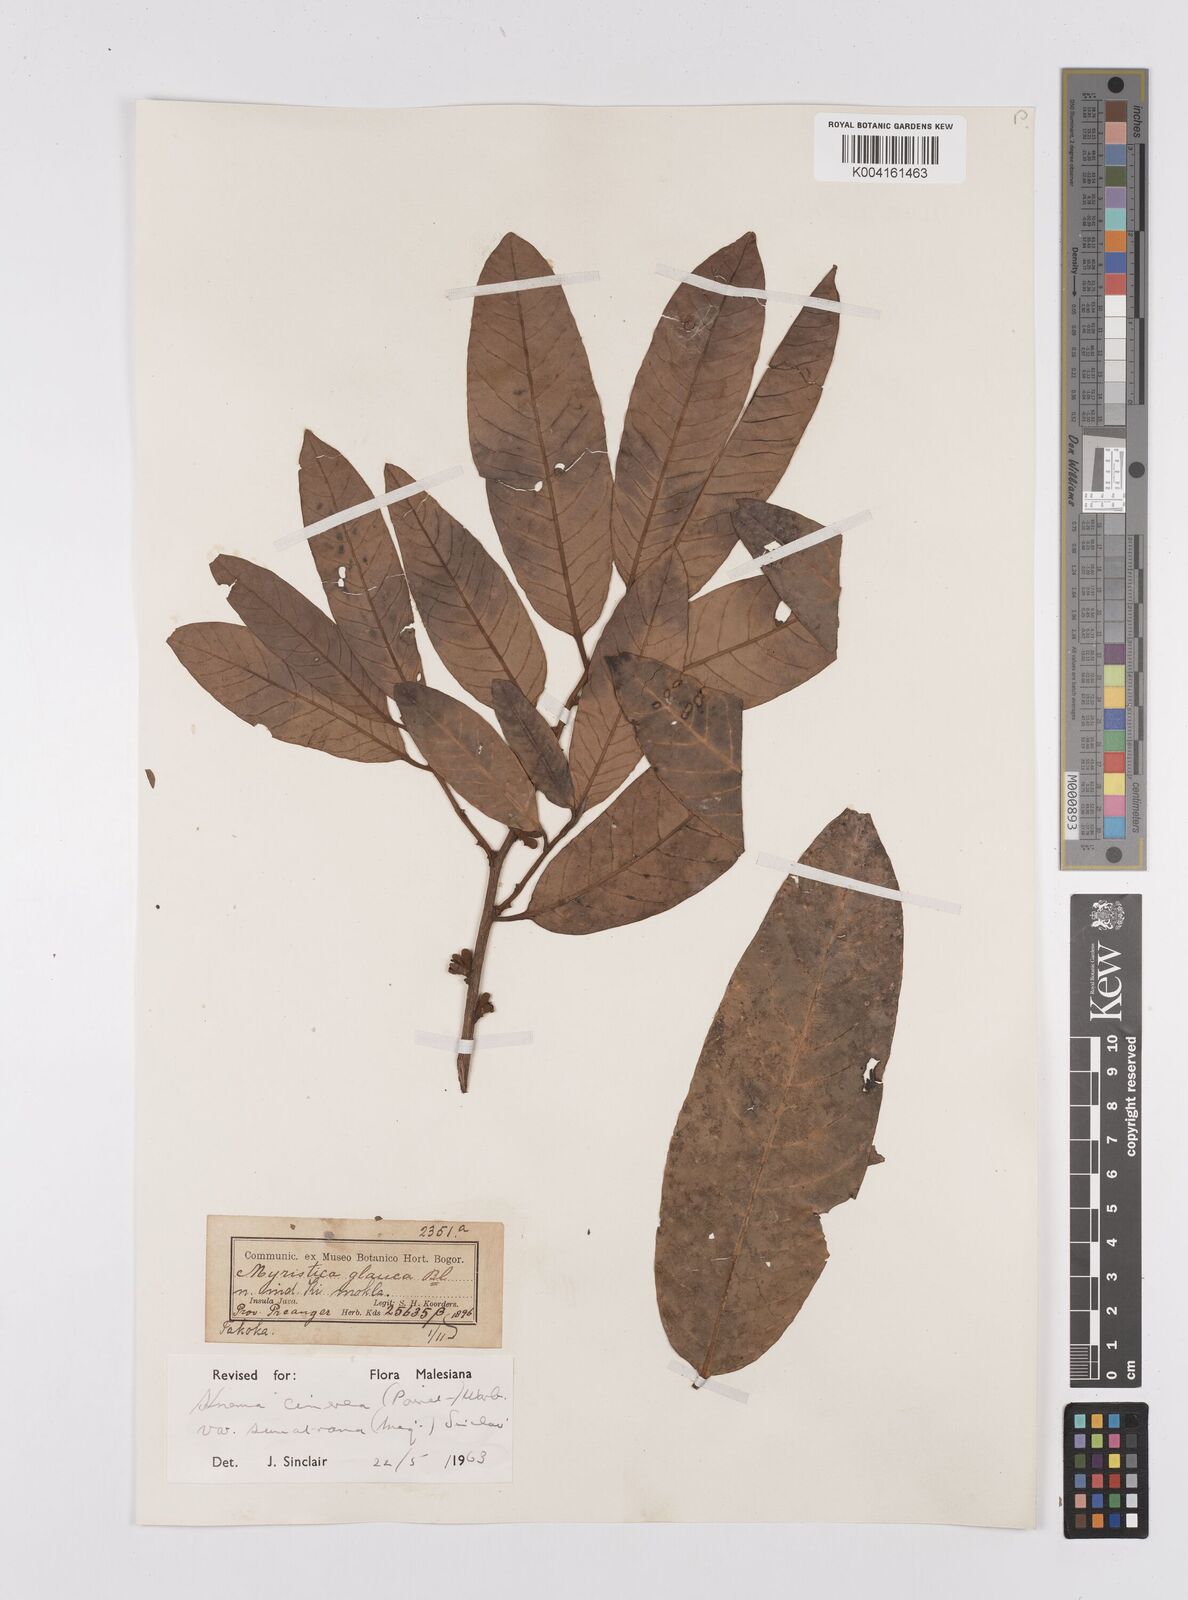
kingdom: Plantae
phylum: Tracheophyta
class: Magnoliopsida
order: Magnoliales
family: Myristicaceae
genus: Knema
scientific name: Knema
